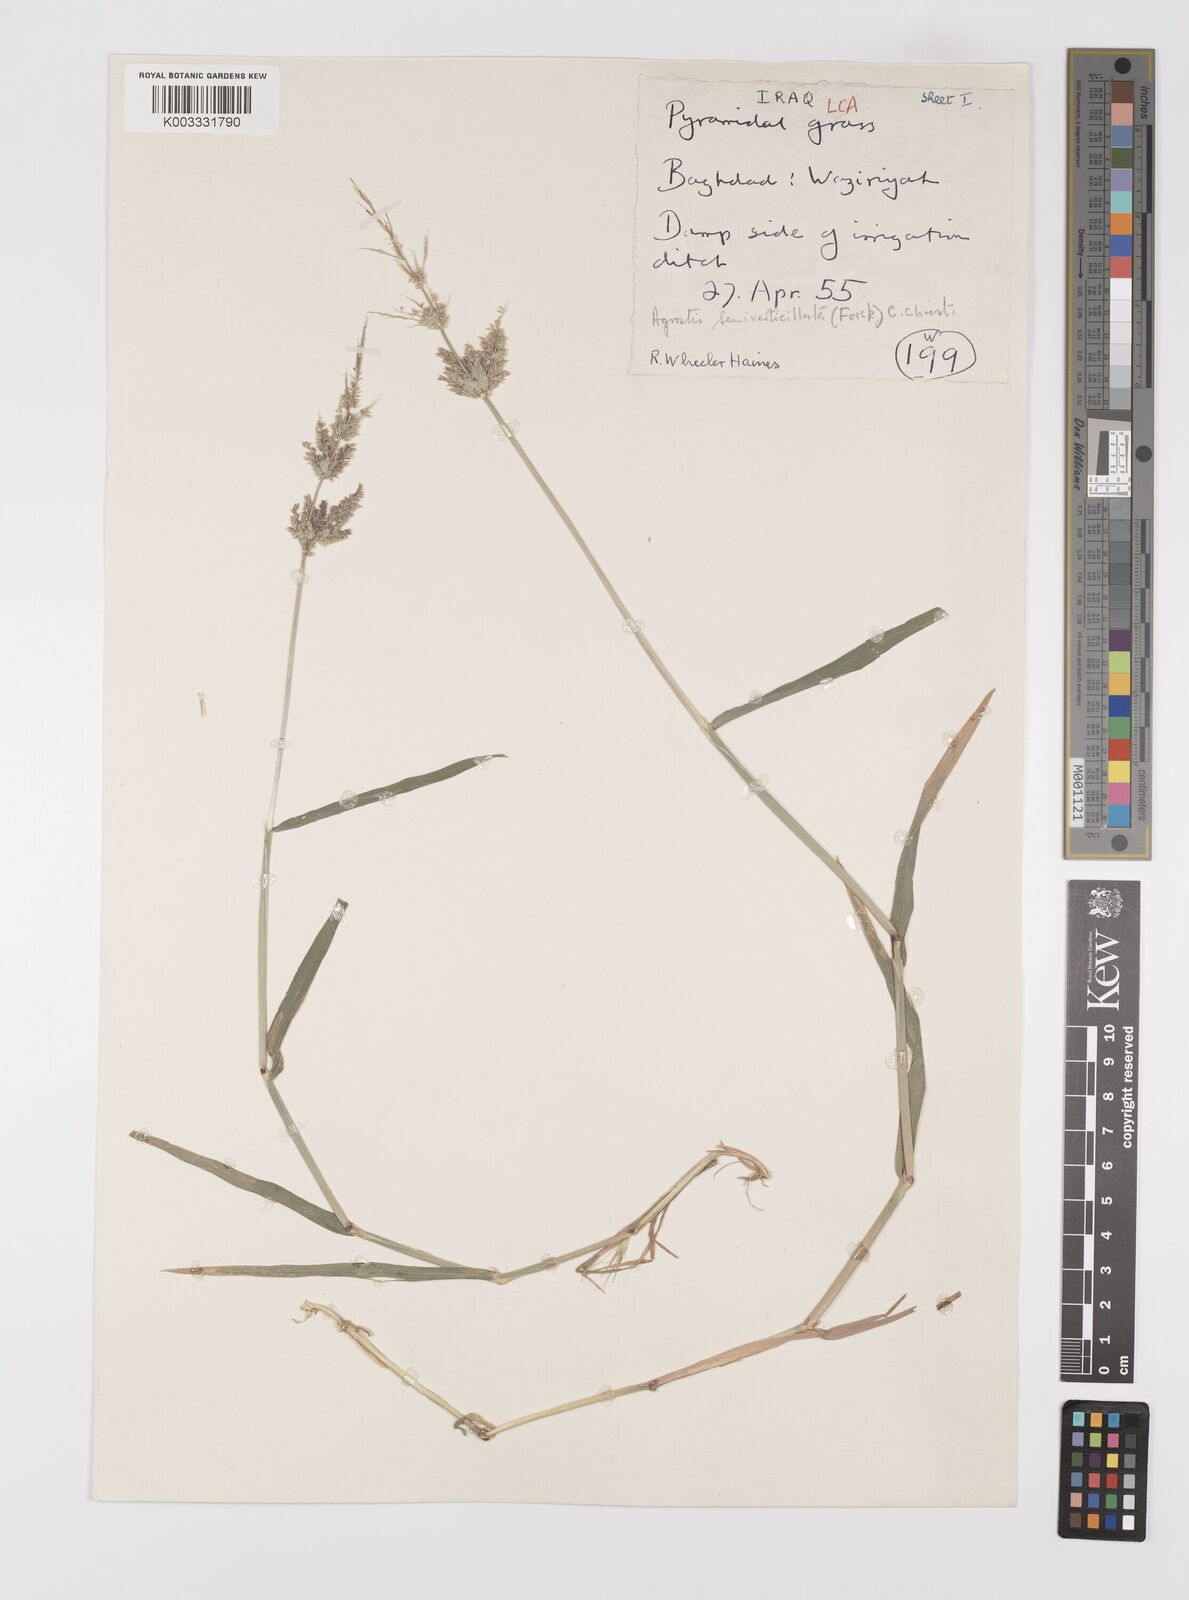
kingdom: Plantae
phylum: Tracheophyta
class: Liliopsida
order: Poales
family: Poaceae
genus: Polypogon
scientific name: Polypogon viridis
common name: Water bent
